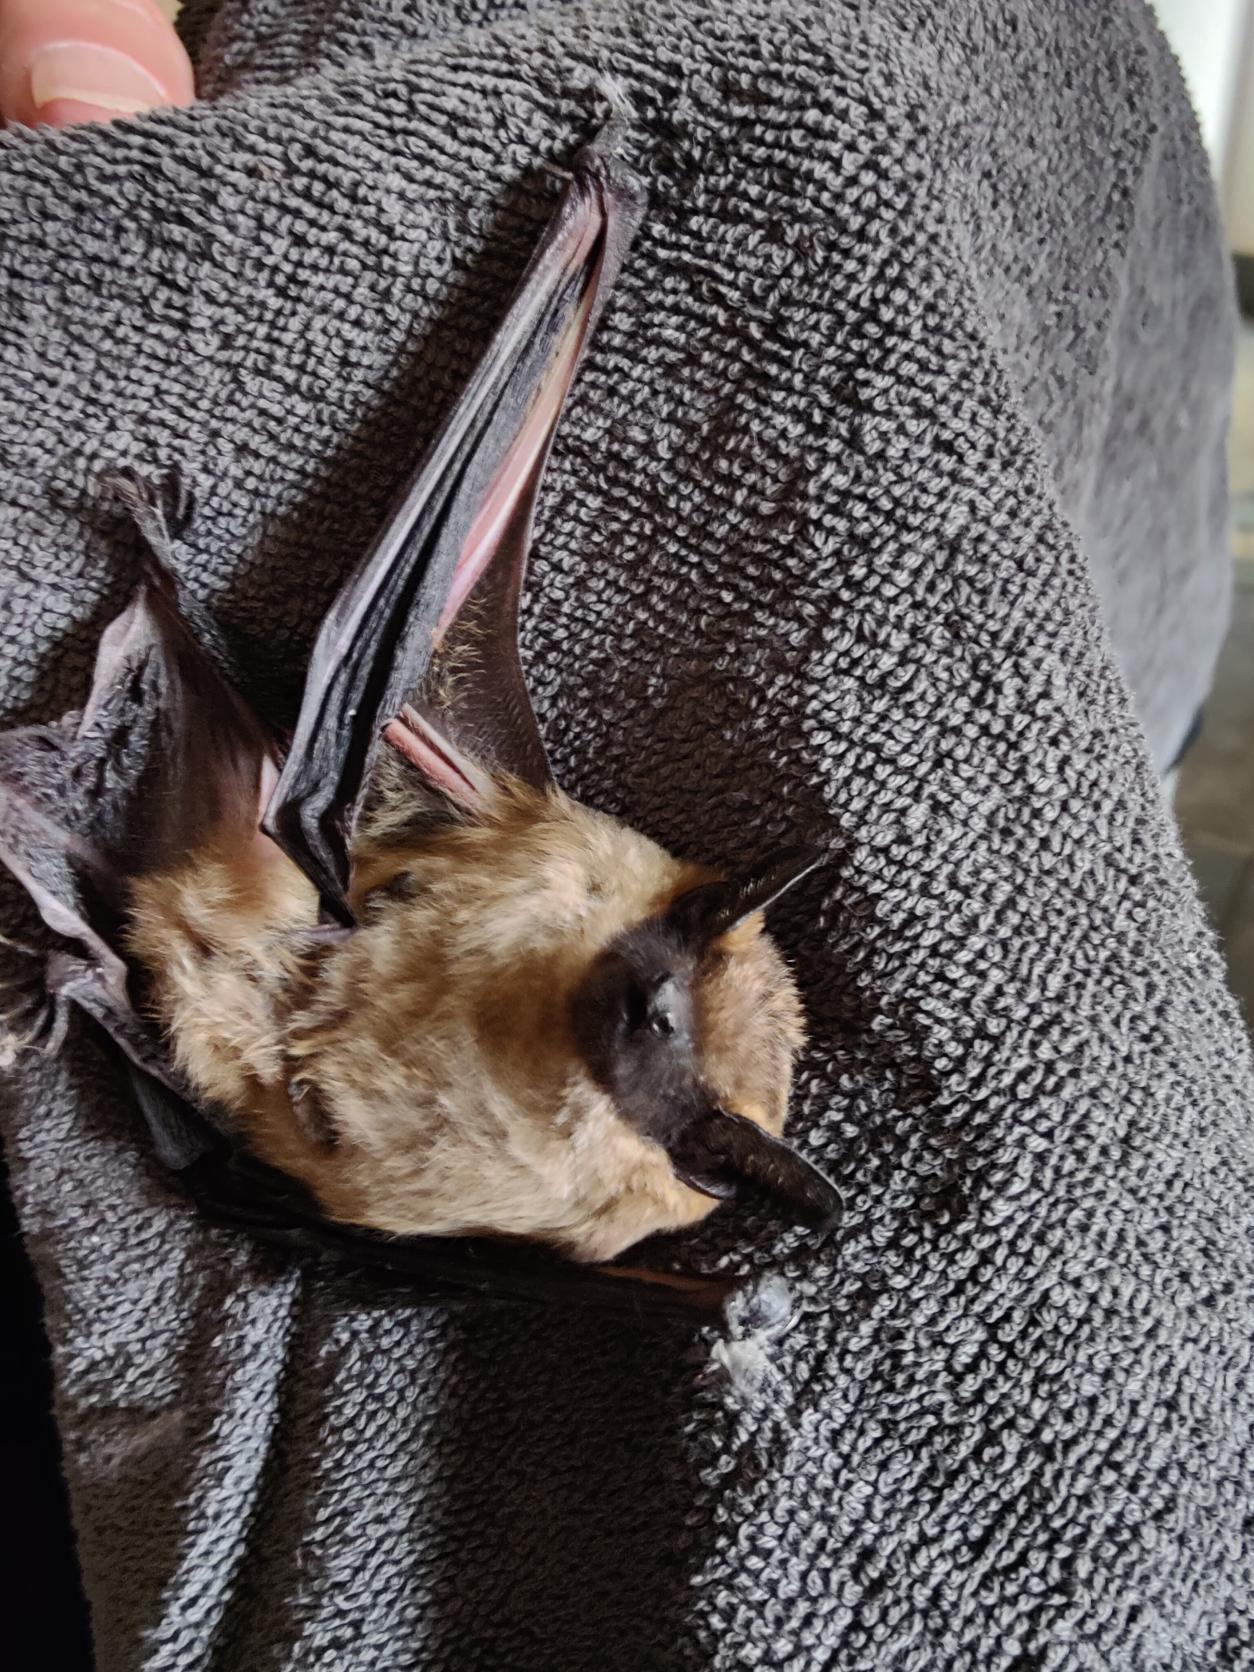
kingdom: Animalia
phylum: Chordata
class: Mammalia
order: Chiroptera
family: Vespertilionidae
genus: Eptesicus
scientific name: Eptesicus serotinus
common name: Sydflagermus
